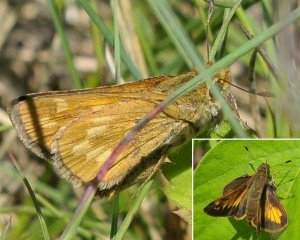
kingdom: Animalia
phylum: Arthropoda
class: Insecta
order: Lepidoptera
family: Hesperiidae
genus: Hesperia
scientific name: Hesperia sassacus
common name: Sassacus Skipper
